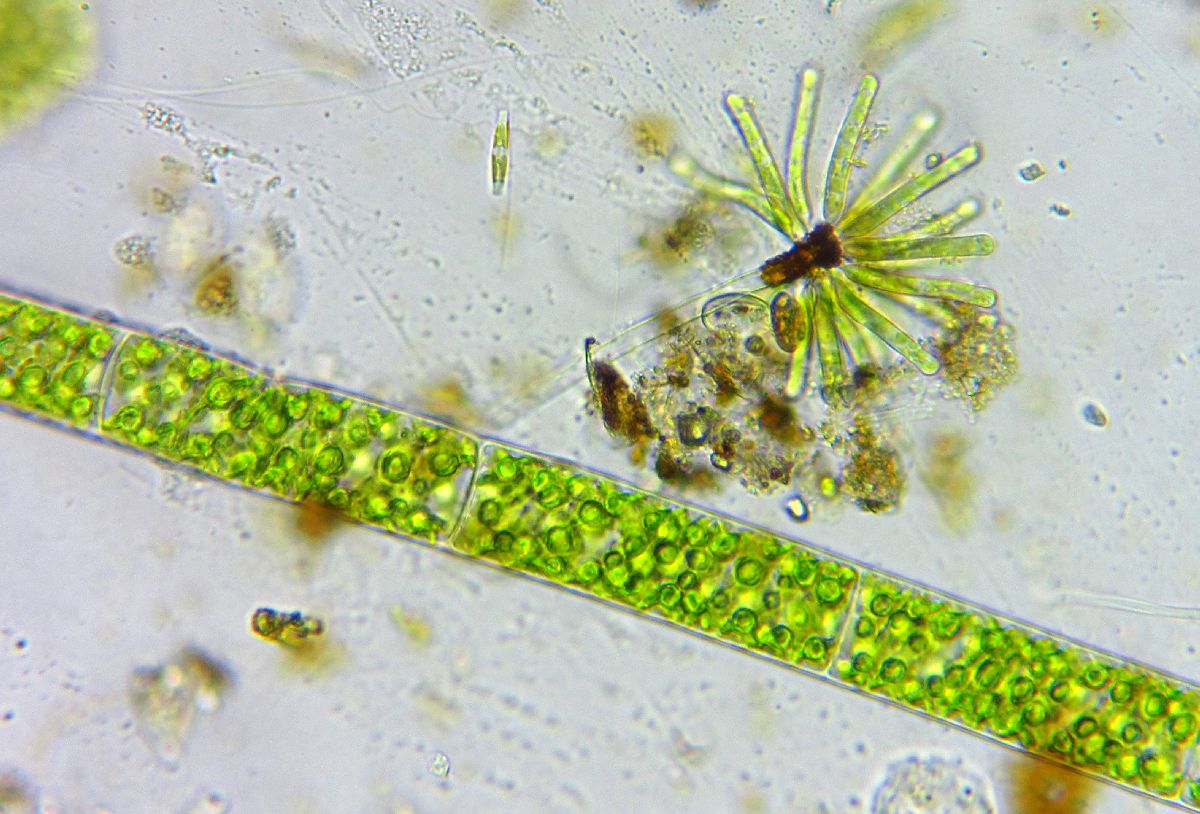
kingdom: Chromista
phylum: Ochrophyta
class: Xanthophyceae
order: Mischococcales
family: Ophiocytiaceae
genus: Ophiocytium
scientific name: Ophiocytium
